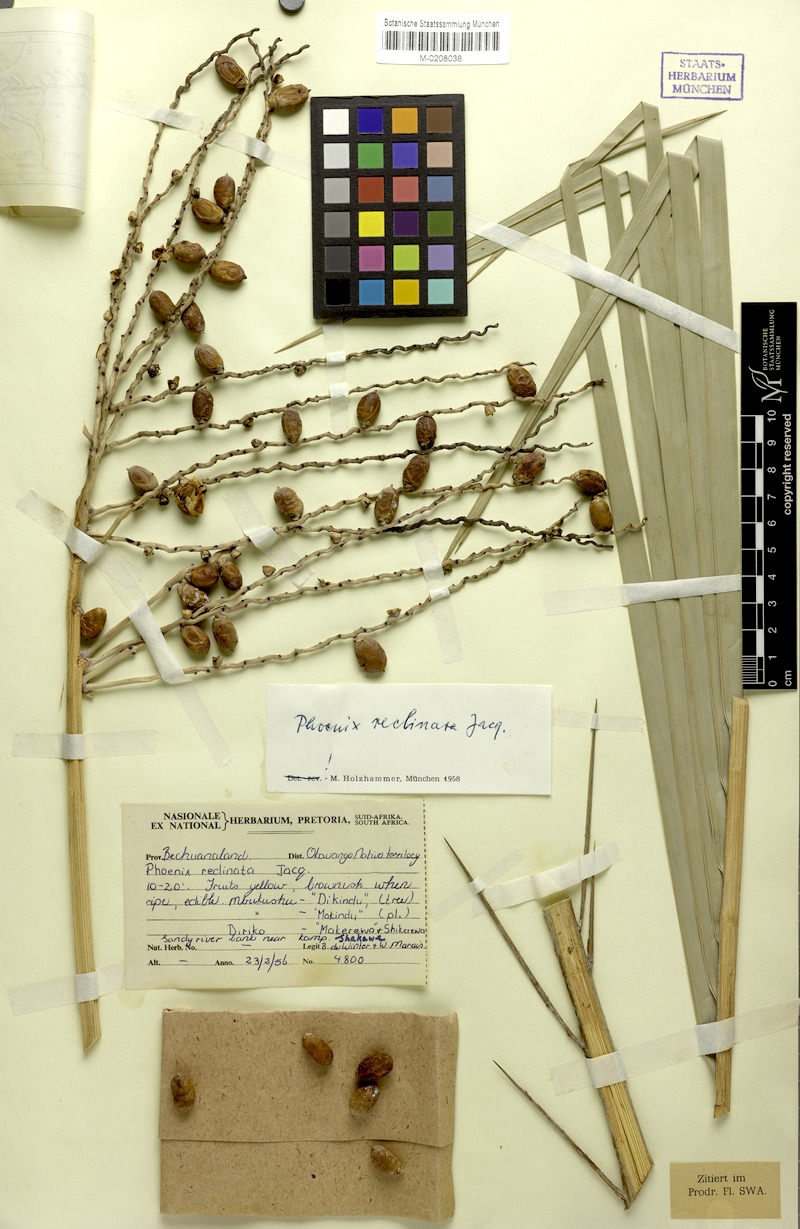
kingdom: Plantae
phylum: Tracheophyta
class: Liliopsida
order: Arecales
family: Arecaceae
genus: Phoenix
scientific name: Phoenix reclinata
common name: Senegal date palm
